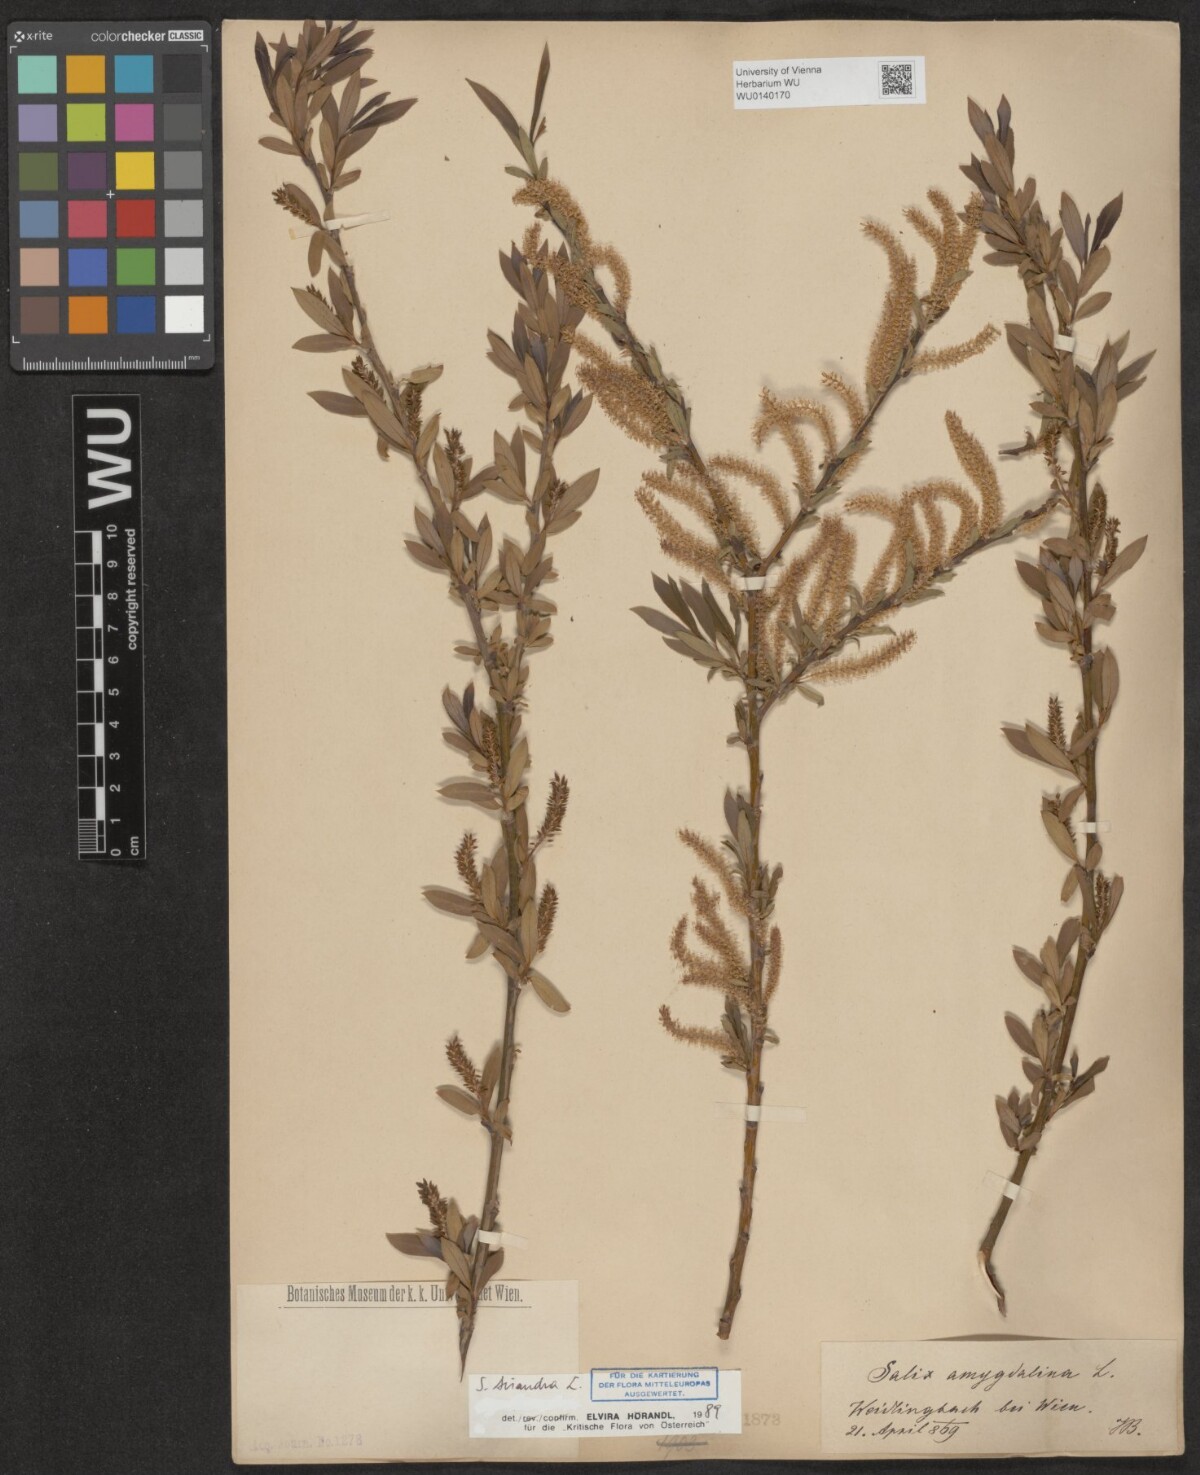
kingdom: Plantae
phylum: Tracheophyta
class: Magnoliopsida
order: Malpighiales
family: Salicaceae
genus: Salix
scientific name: Salix triandra
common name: Almond willow
